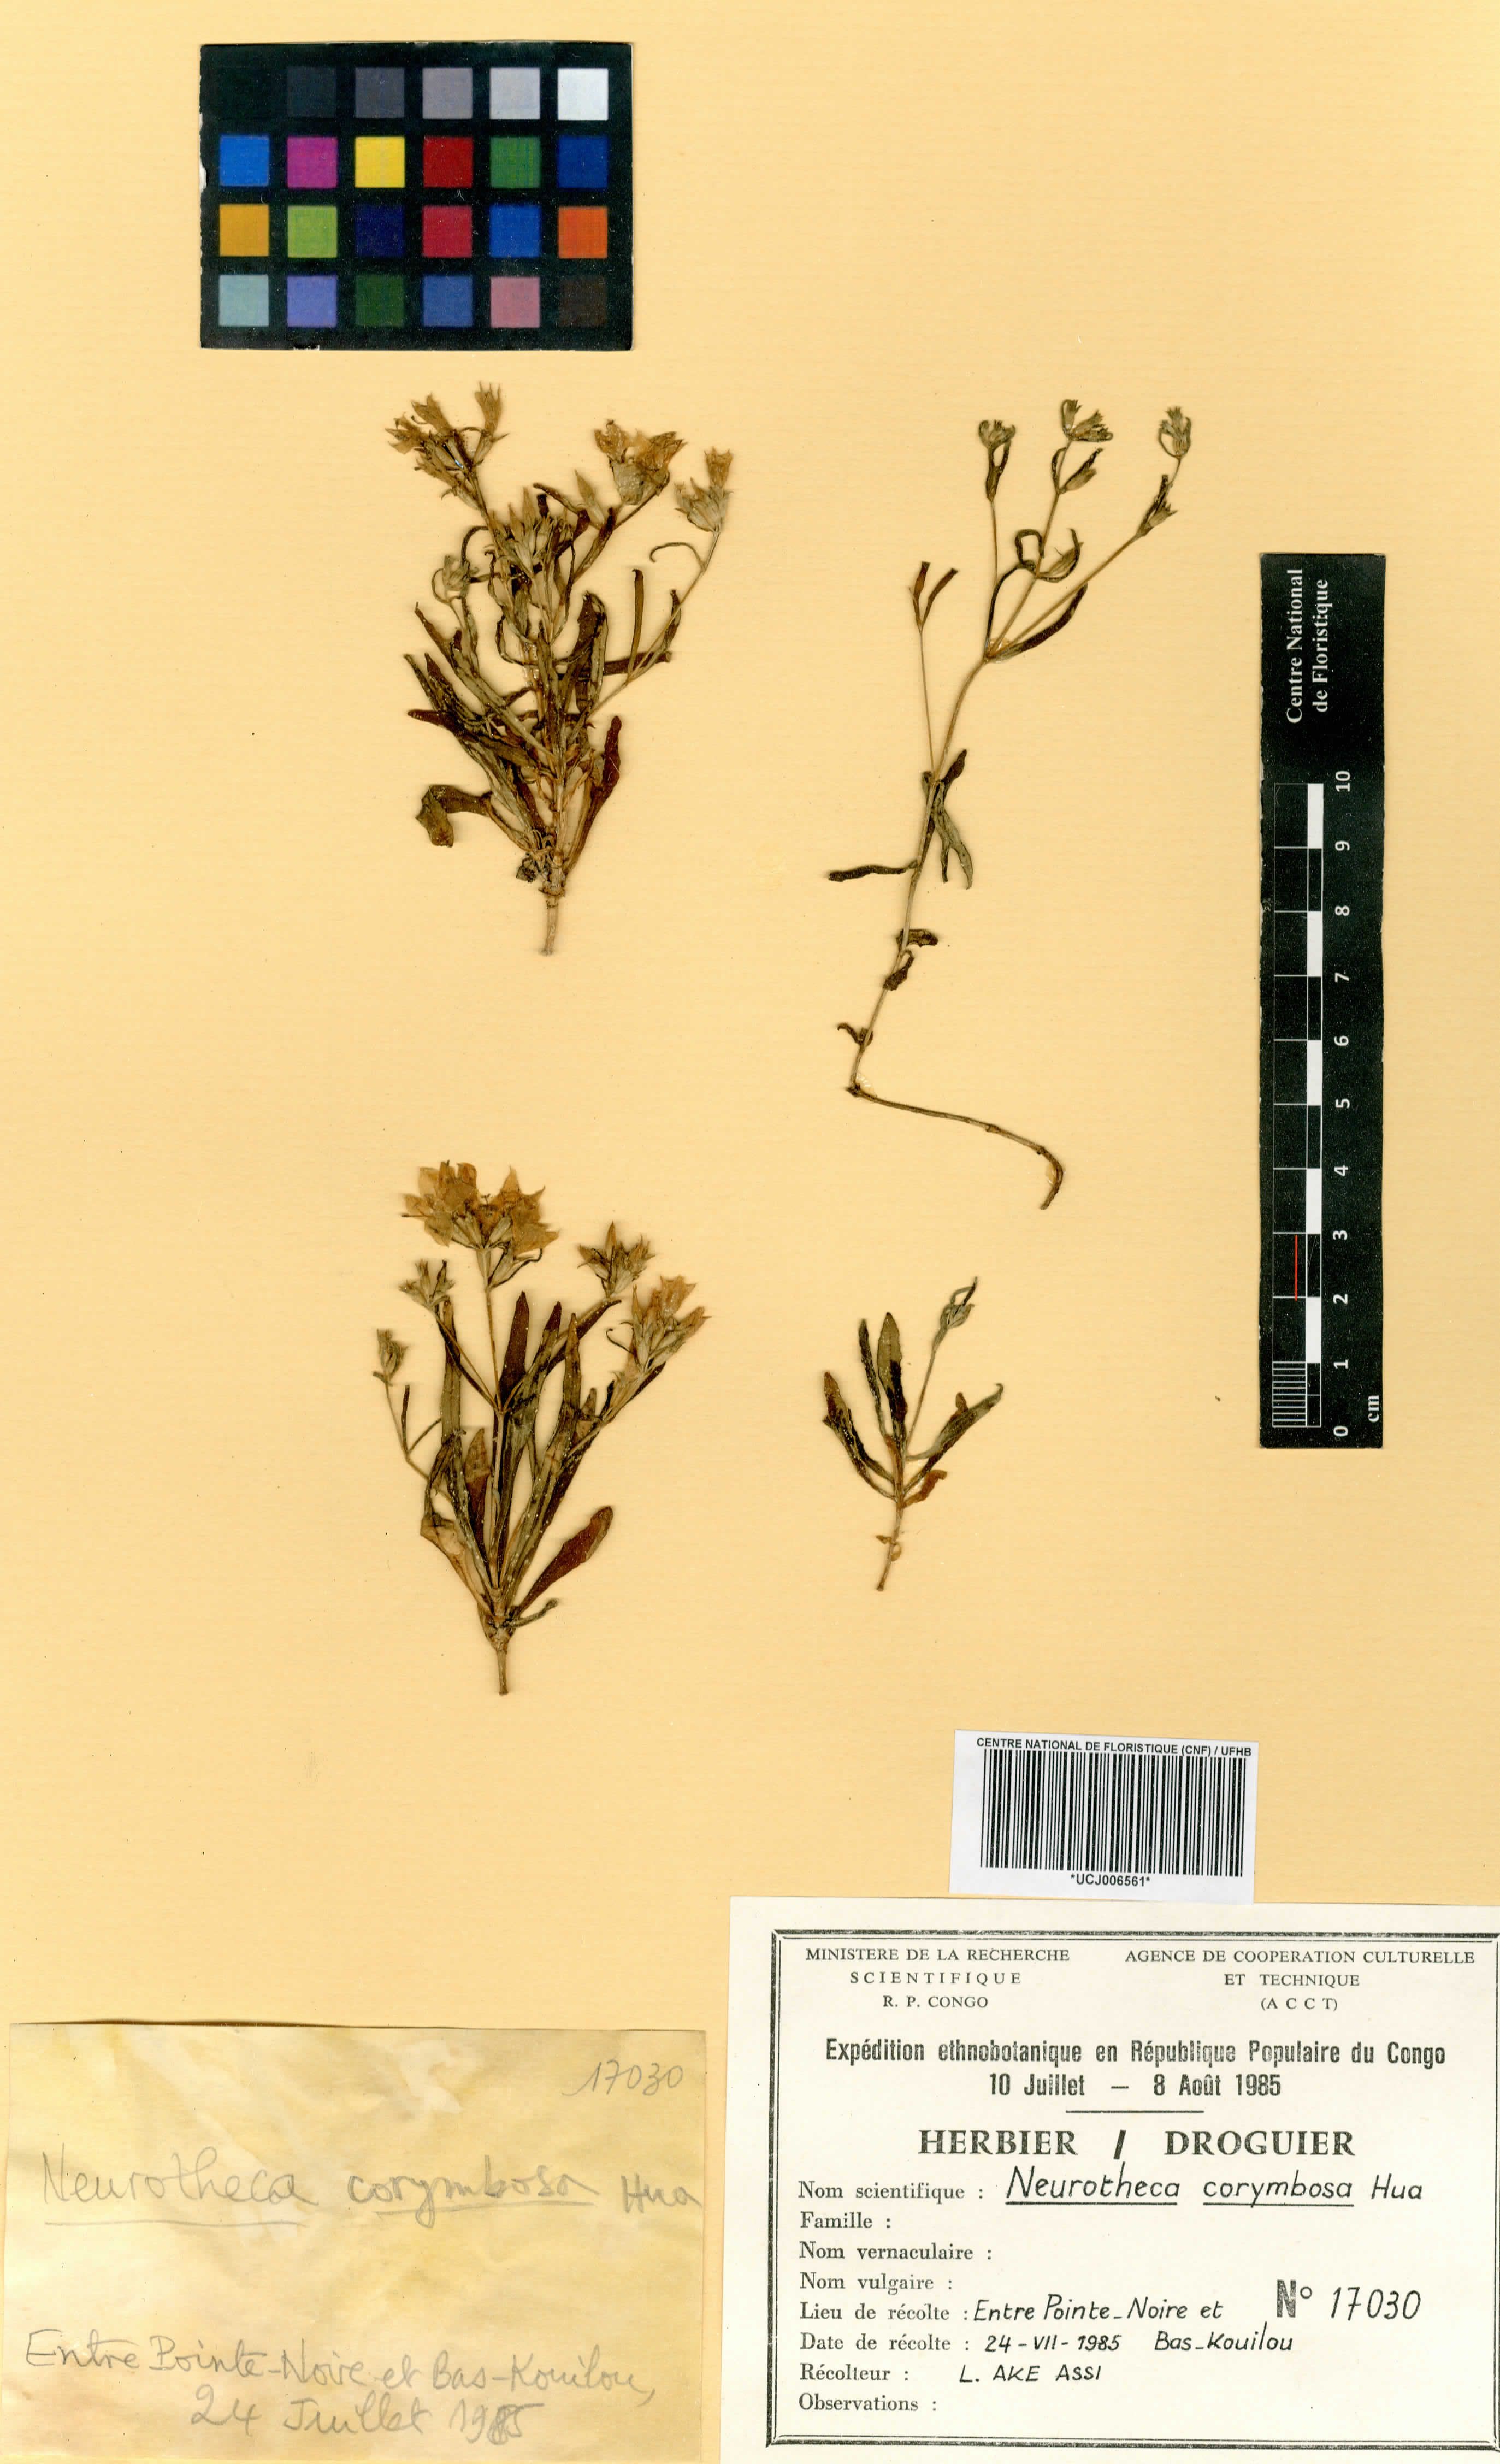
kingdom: Plantae
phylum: Tracheophyta
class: Magnoliopsida
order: Gentianales
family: Gentianaceae
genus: Neurotheca
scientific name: Neurotheca corymbosa
